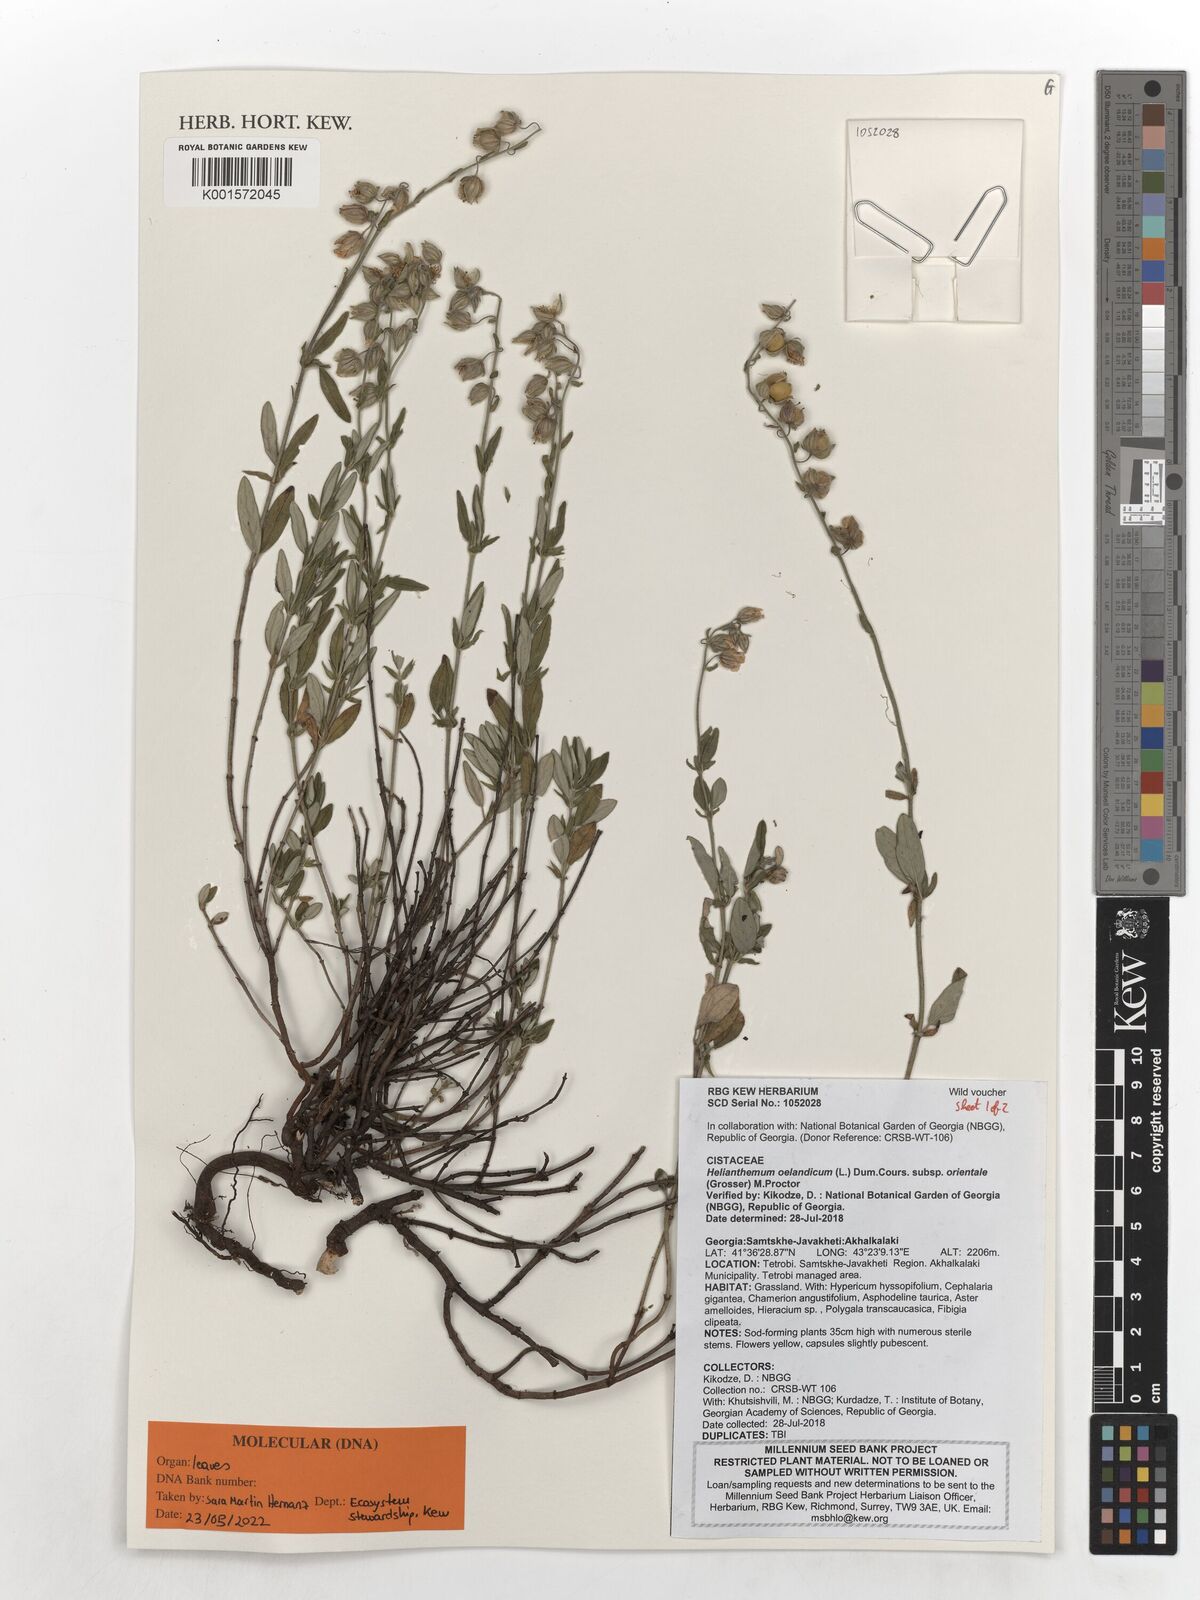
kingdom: Plantae
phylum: Tracheophyta
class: Magnoliopsida
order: Malvales
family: Cistaceae
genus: Helianthemum
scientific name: Helianthemum orientale
